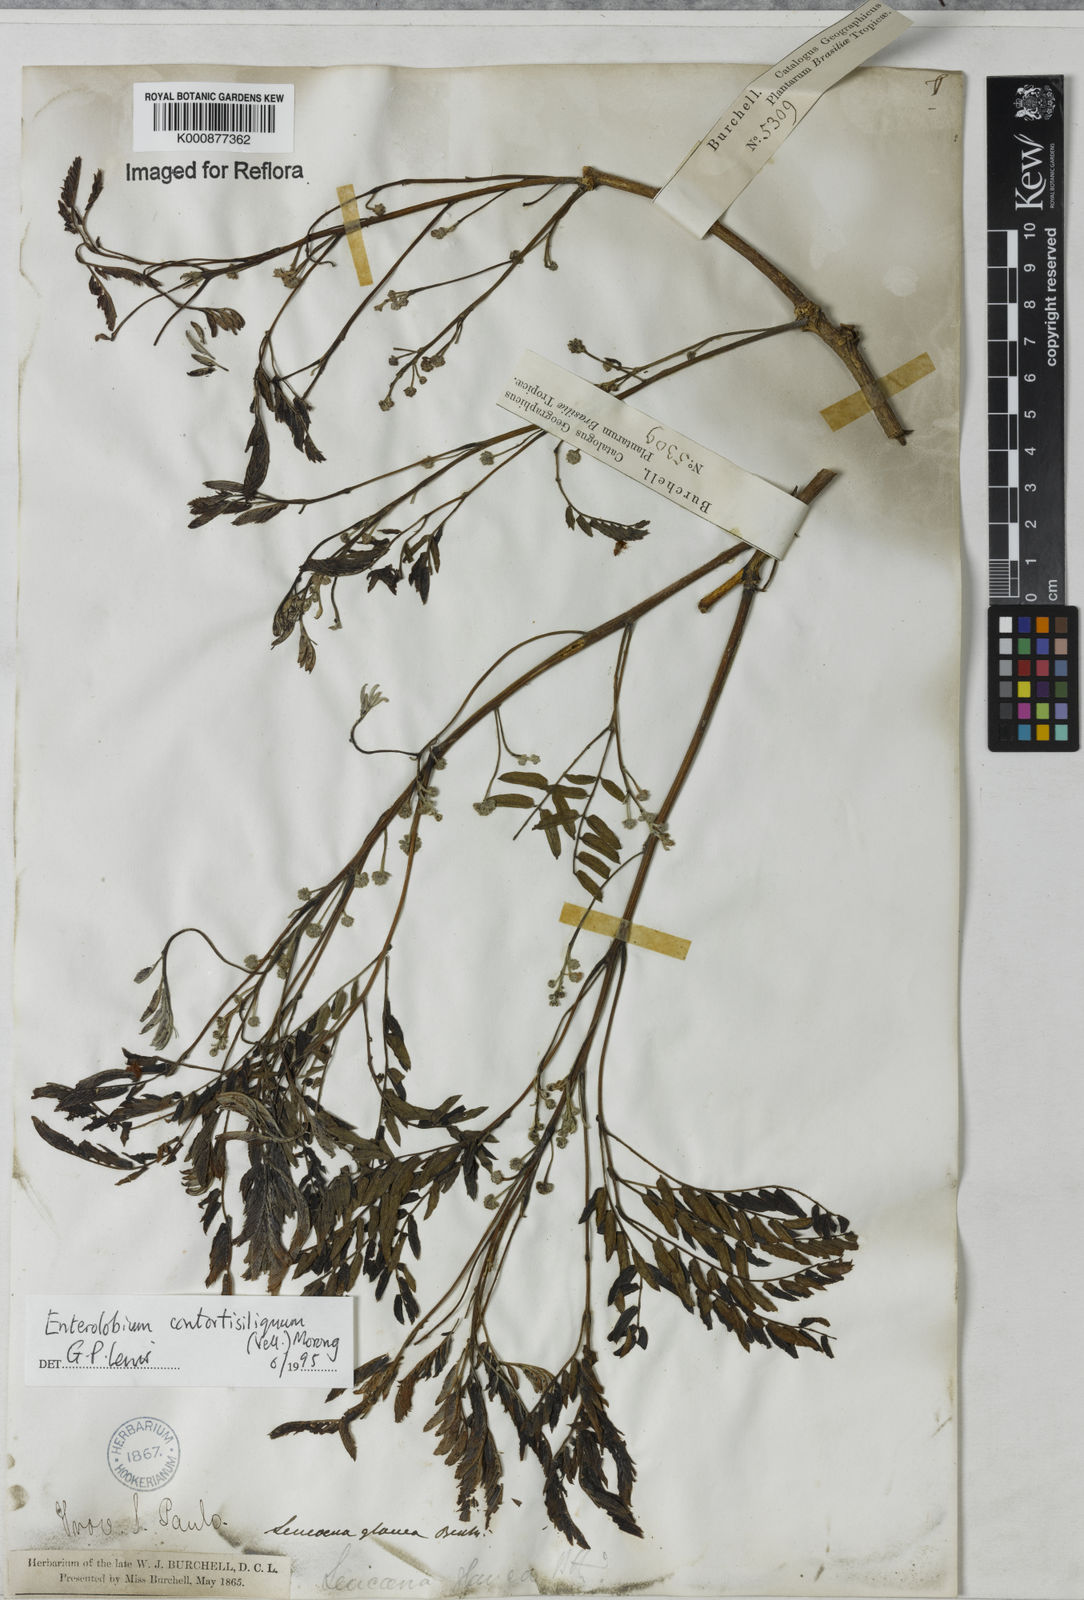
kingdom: Plantae
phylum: Tracheophyta
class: Magnoliopsida
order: Fabales
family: Fabaceae
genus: Enterolobium
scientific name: Enterolobium contortisiliquum
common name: Pacara earpod tree
